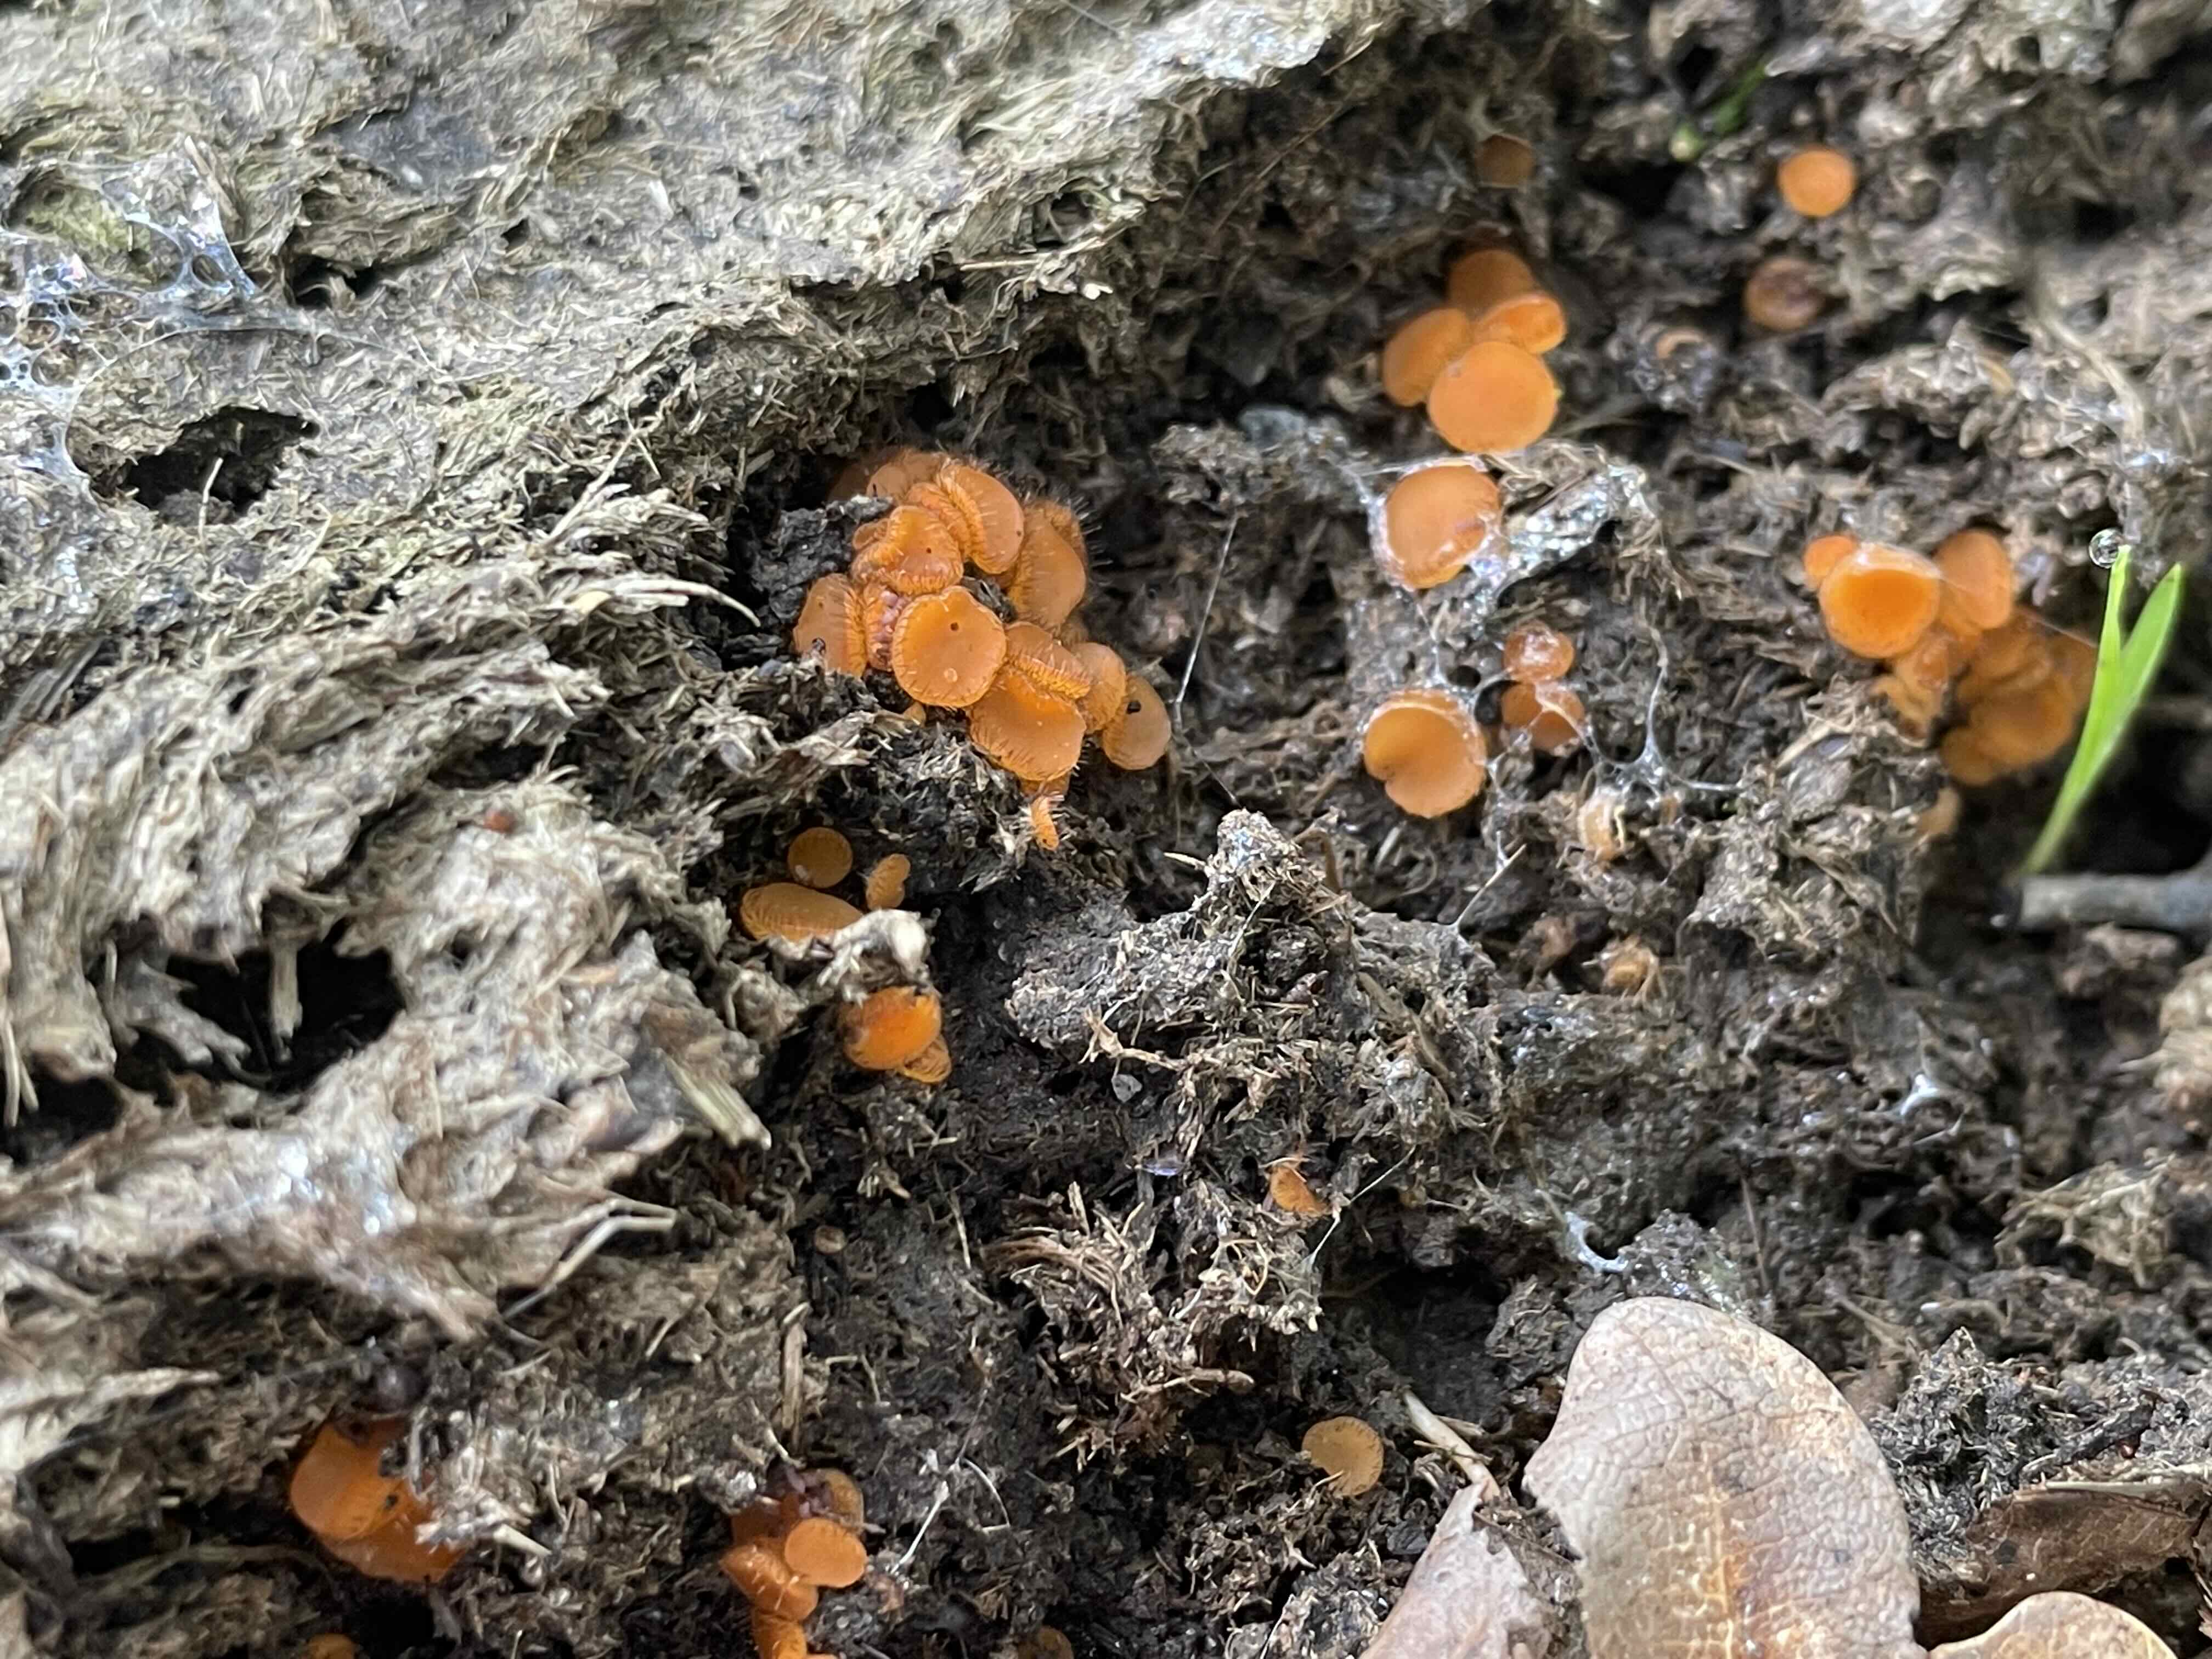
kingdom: Fungi
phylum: Ascomycota
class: Pezizomycetes
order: Pezizales
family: Pyronemataceae
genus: Cheilymenia
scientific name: Cheilymenia
